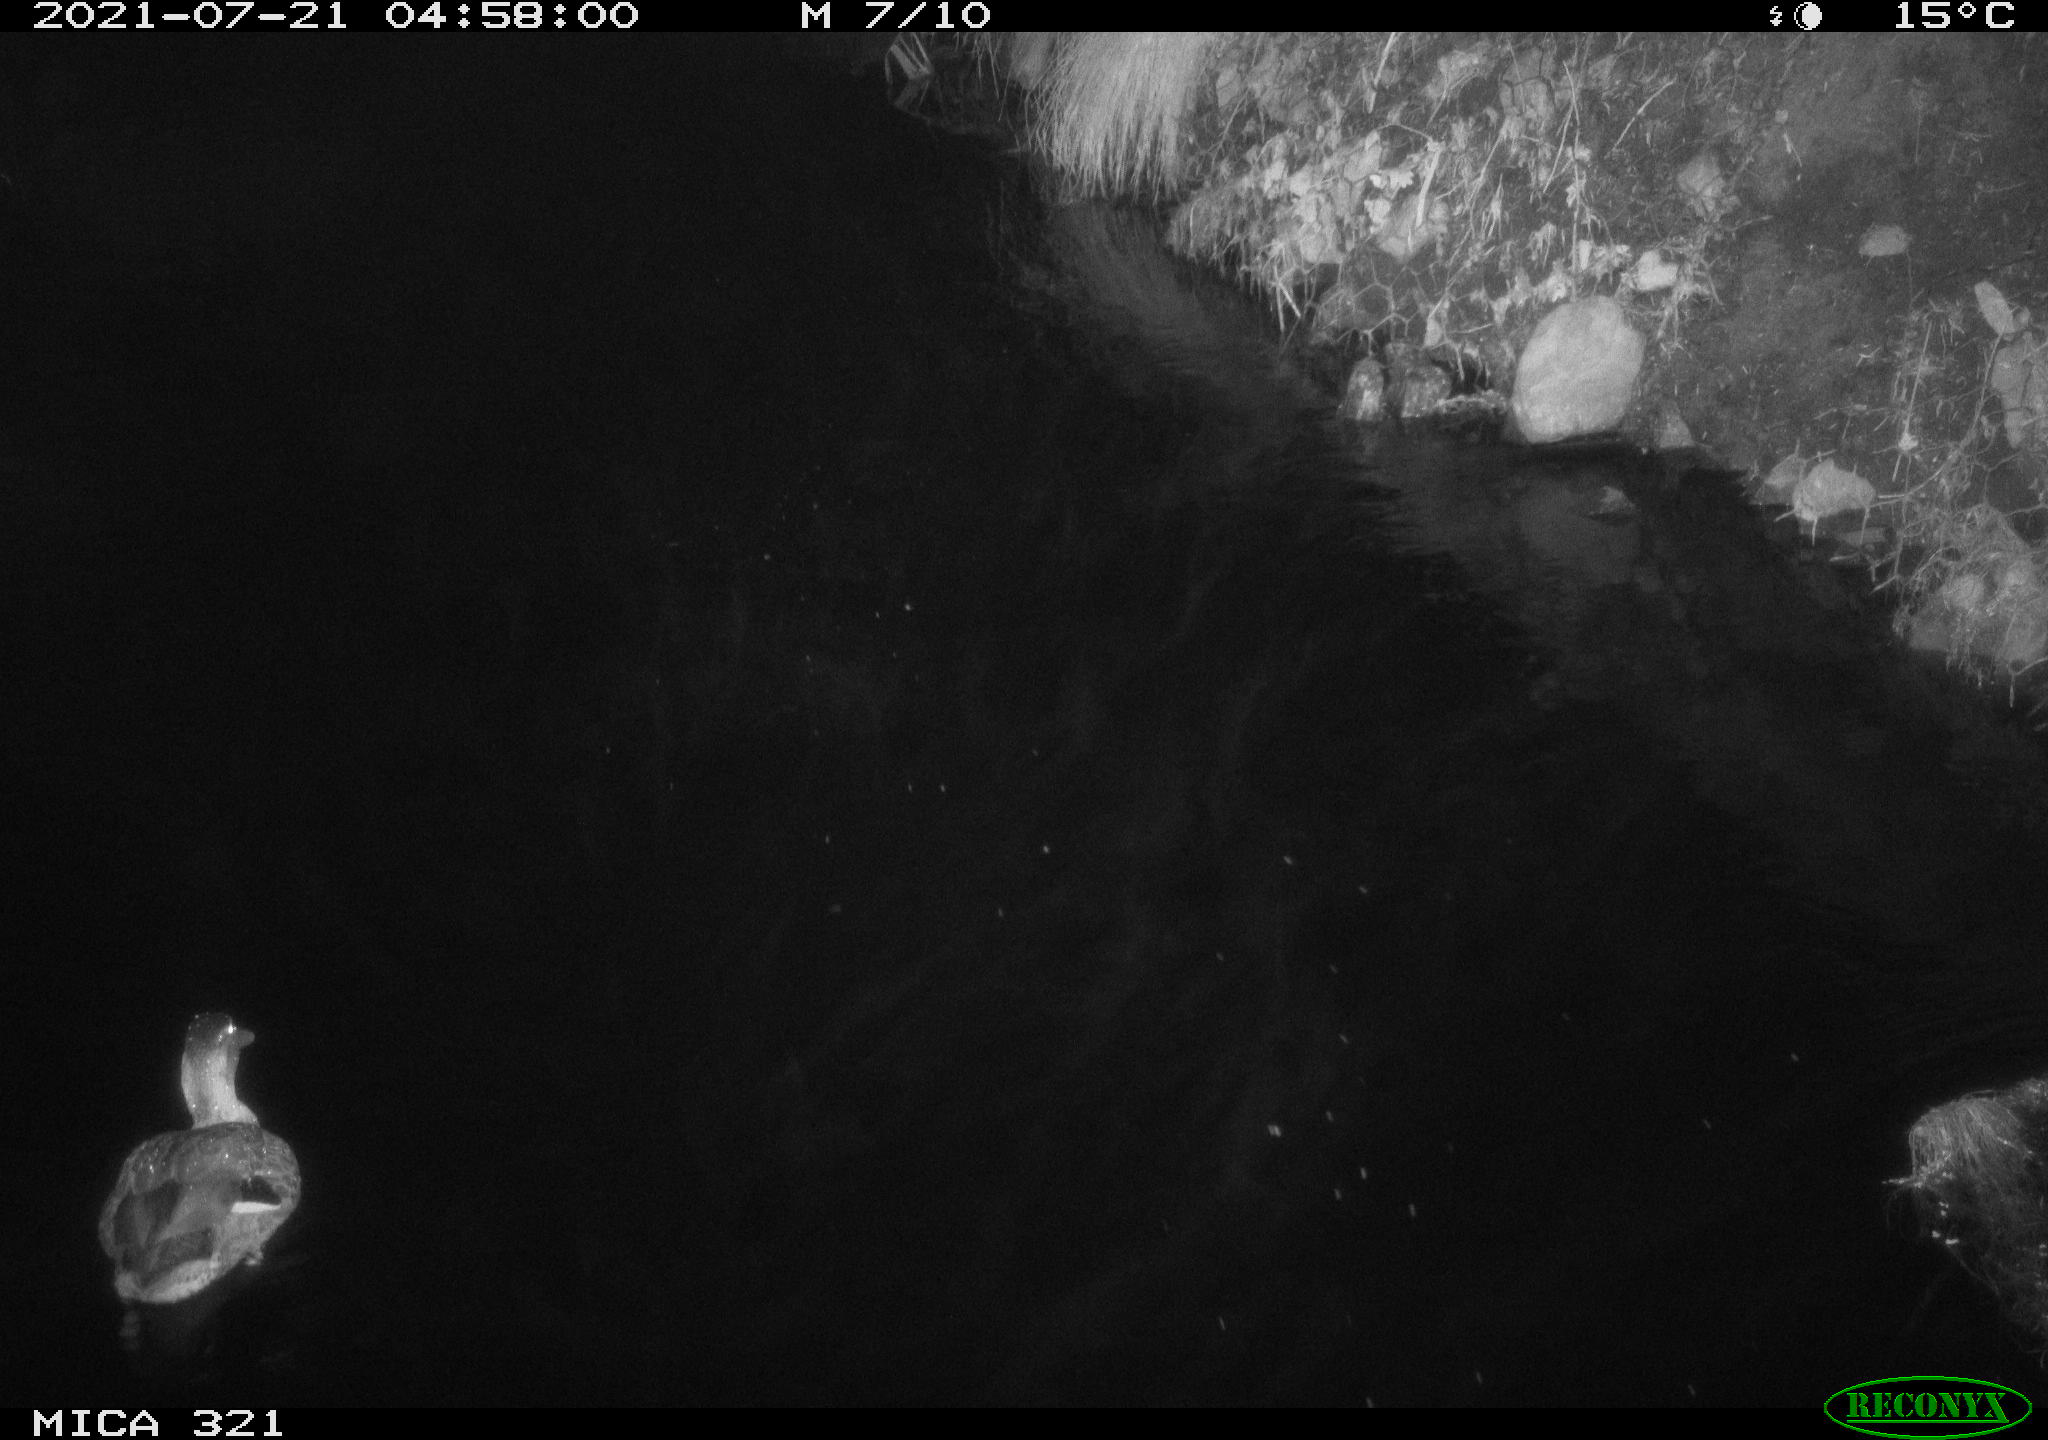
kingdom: Animalia
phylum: Chordata
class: Aves
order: Anseriformes
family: Anatidae
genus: Anas
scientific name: Anas platyrhynchos
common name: Mallard
